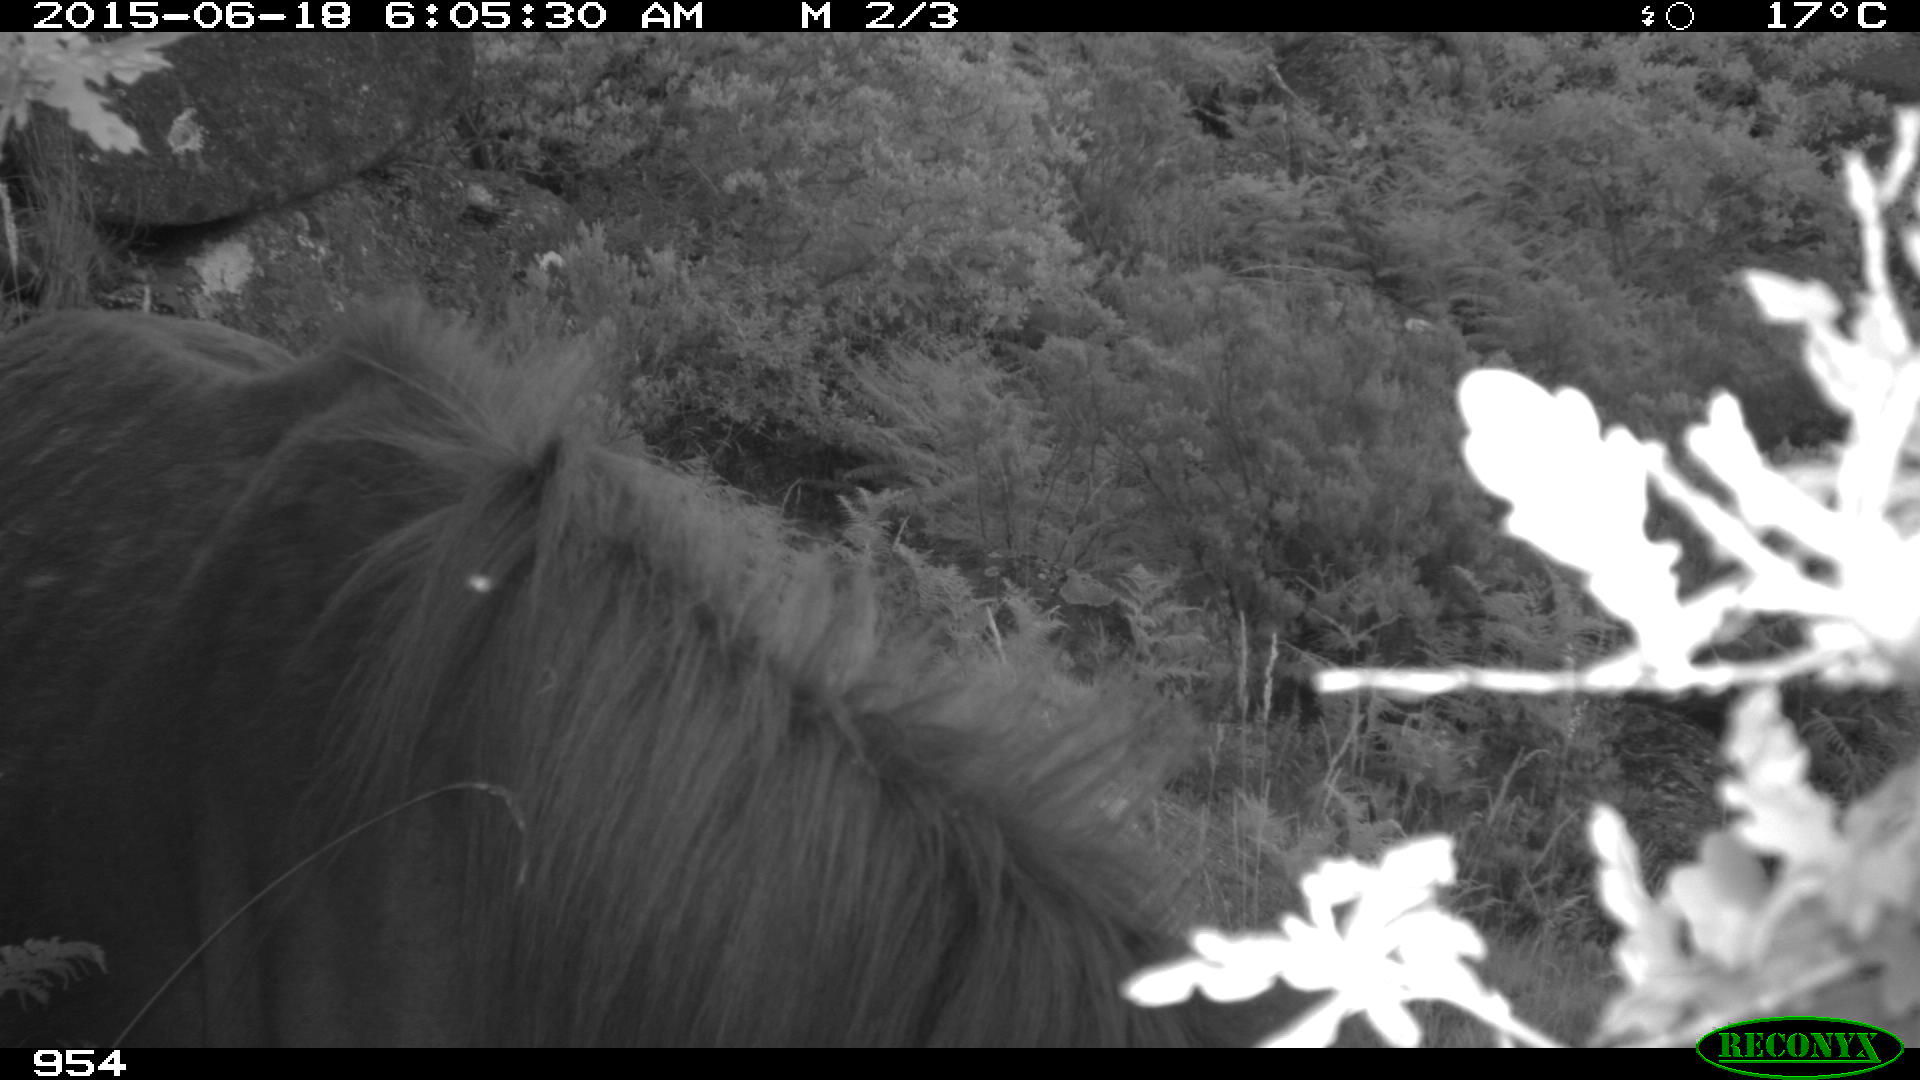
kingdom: Animalia
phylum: Chordata
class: Mammalia
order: Perissodactyla
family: Equidae
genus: Equus
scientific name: Equus caballus
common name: Horse
